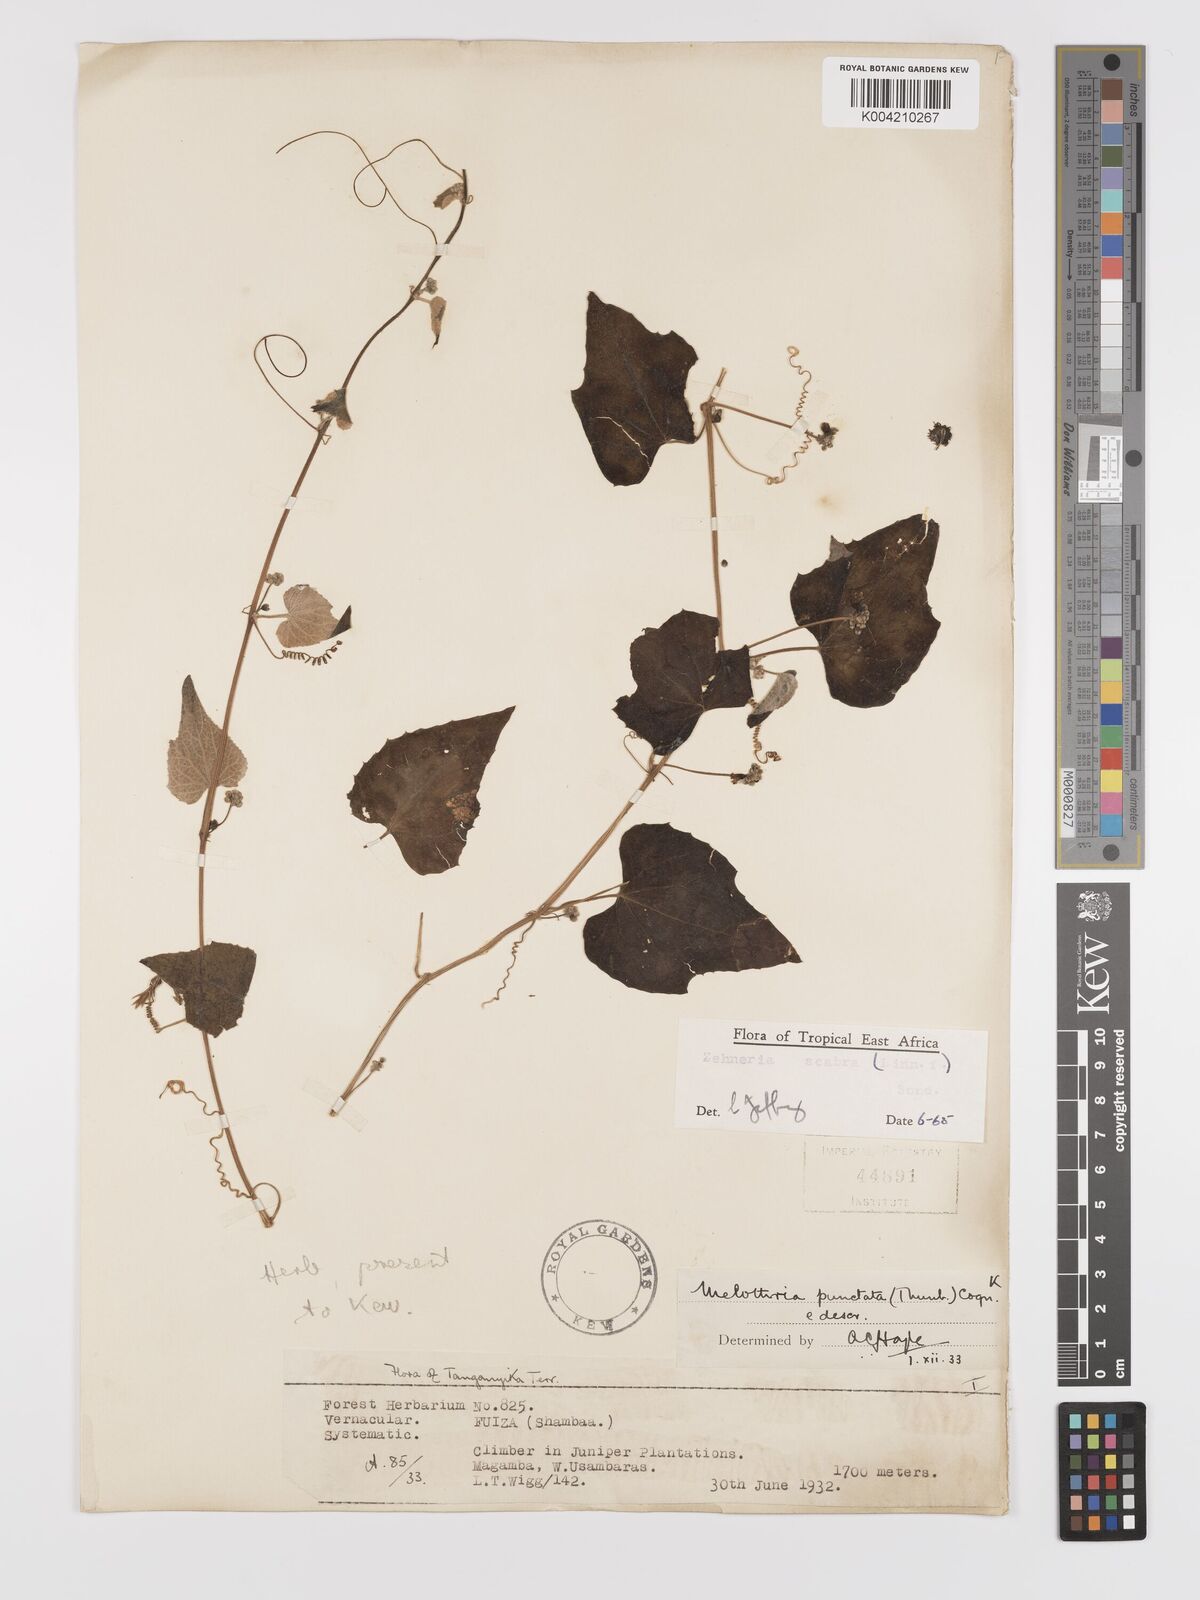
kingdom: Plantae
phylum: Tracheophyta
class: Magnoliopsida
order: Cucurbitales
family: Cucurbitaceae
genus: Zehneria
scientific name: Zehneria scabra
